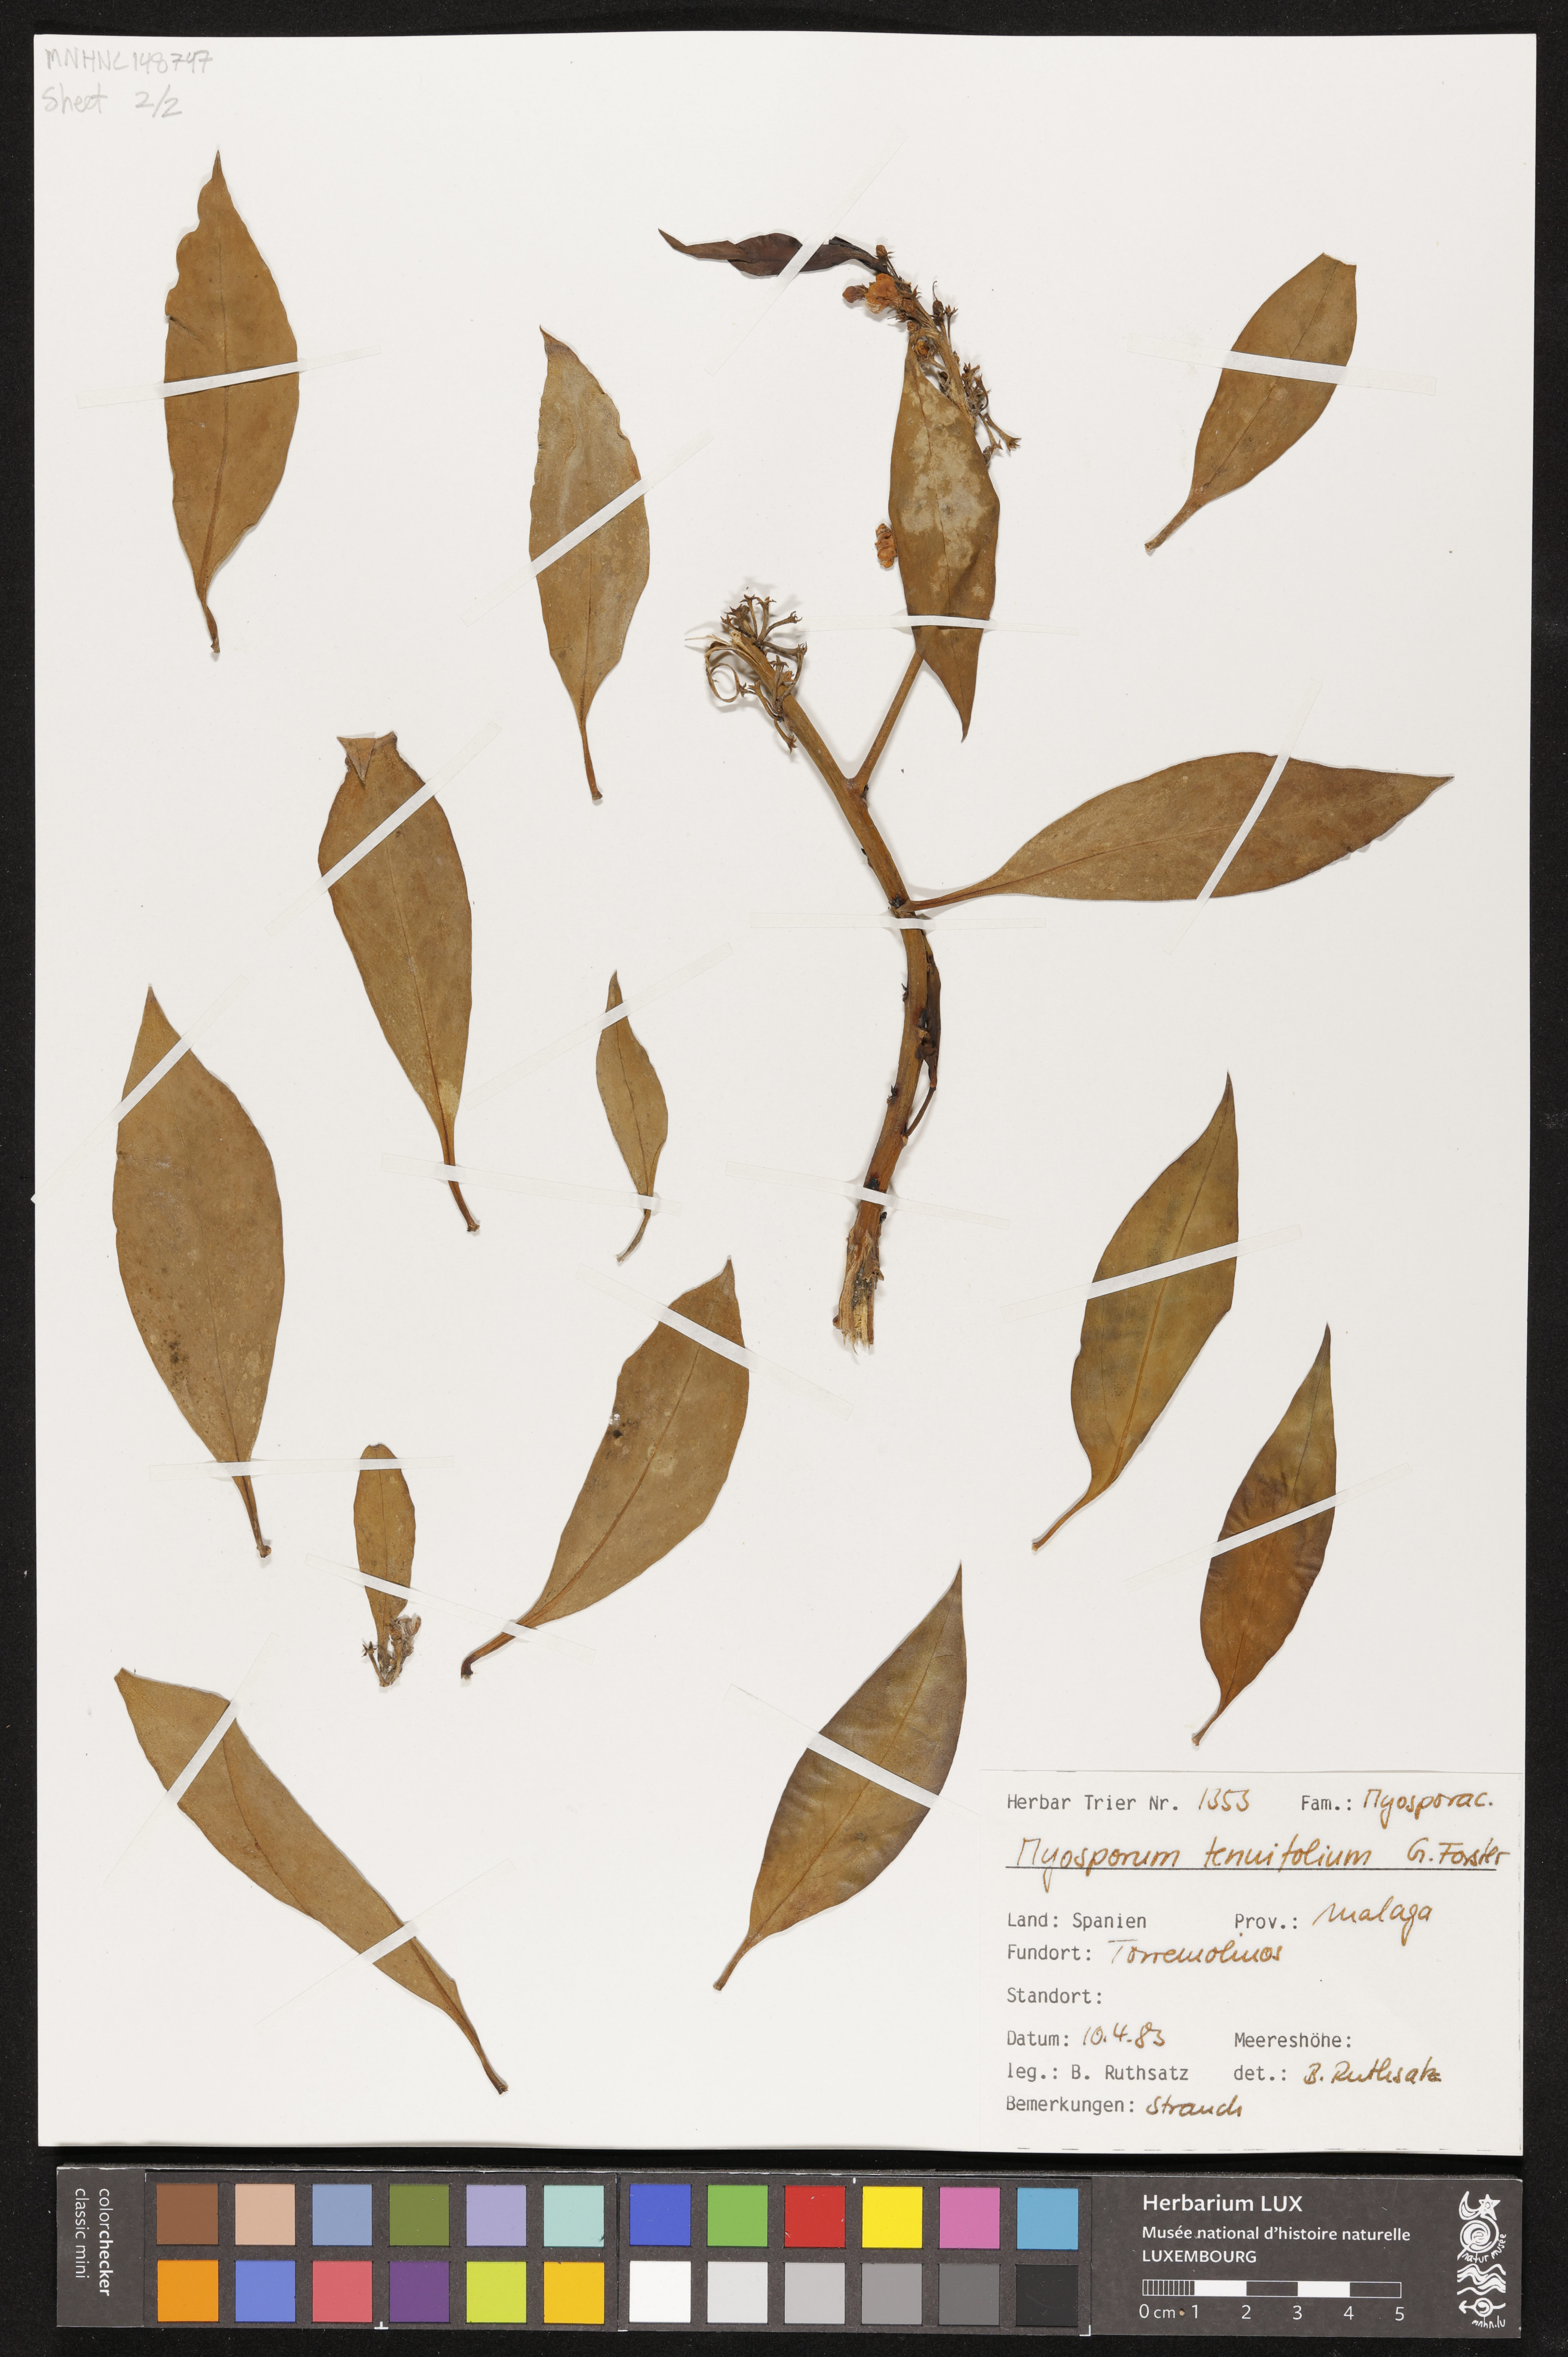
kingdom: Plantae
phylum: Tracheophyta
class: Magnoliopsida
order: Lamiales
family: Scrophulariaceae
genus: Myoporum
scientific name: Myoporum tenuifolium
